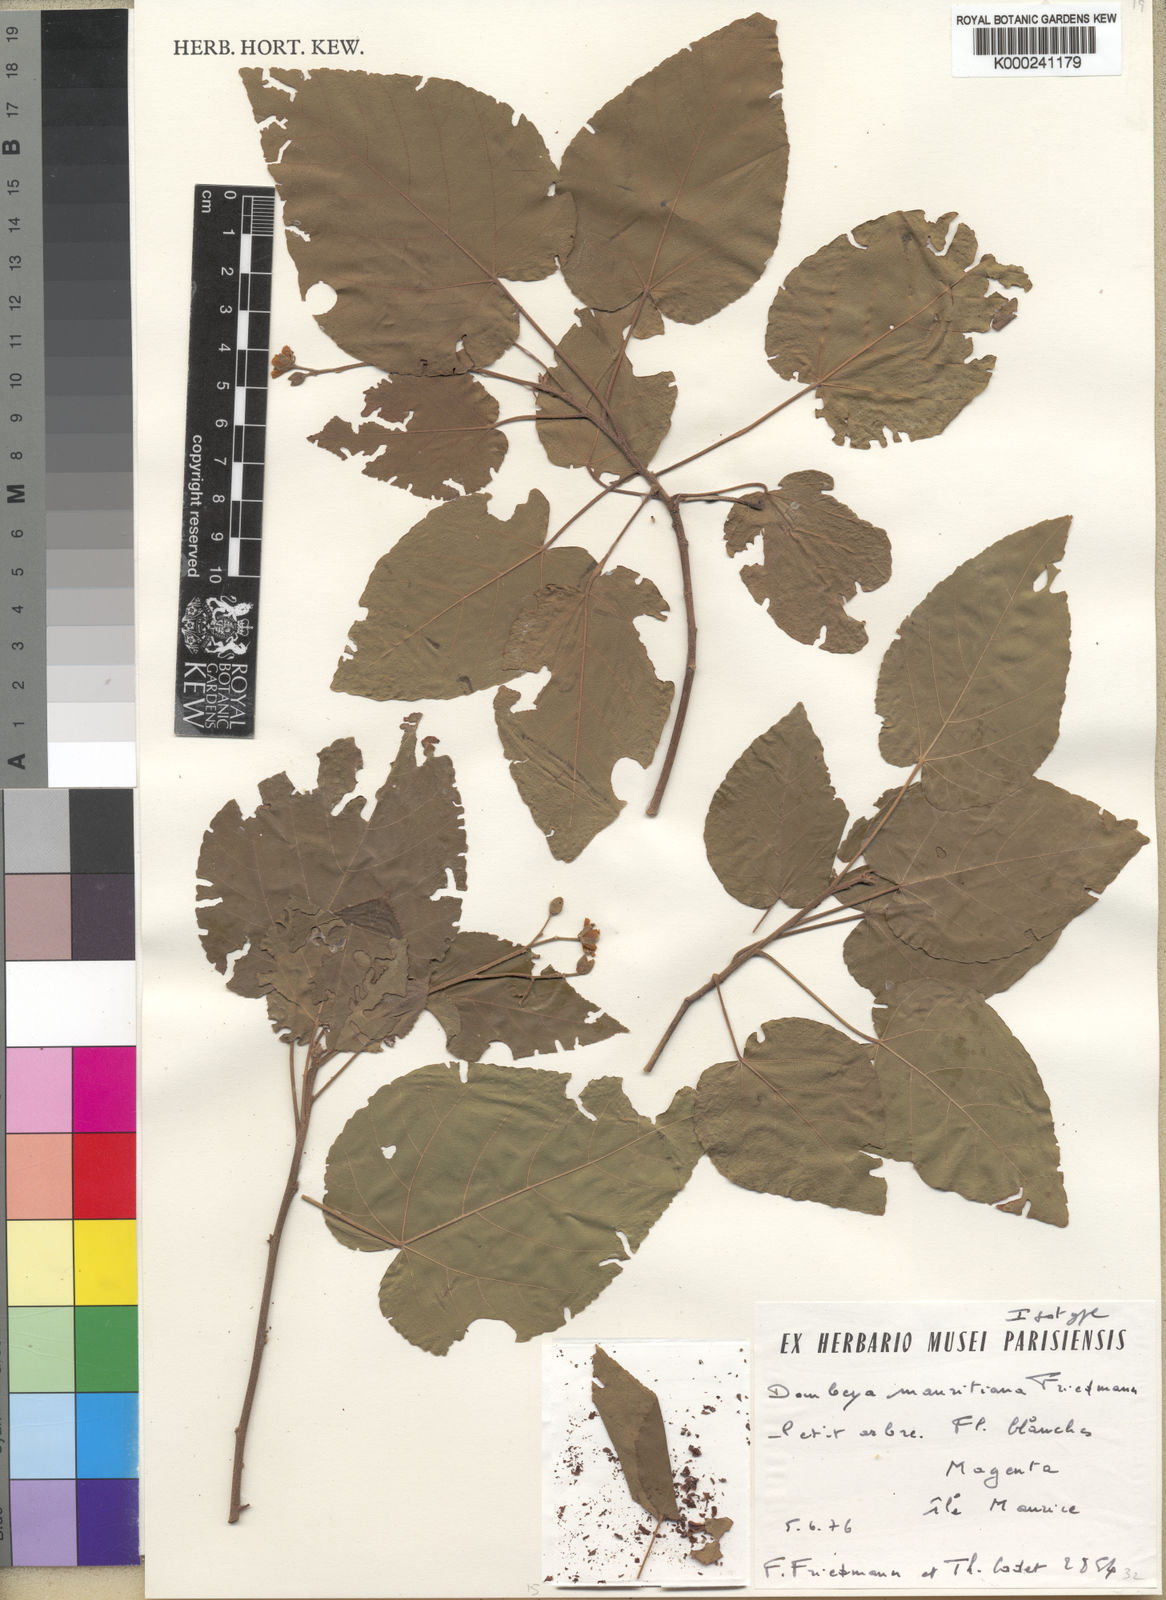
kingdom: Plantae
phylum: Tracheophyta
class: Magnoliopsida
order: Malvales
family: Malvaceae
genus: Ruizia
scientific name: Ruizia mauritiana
